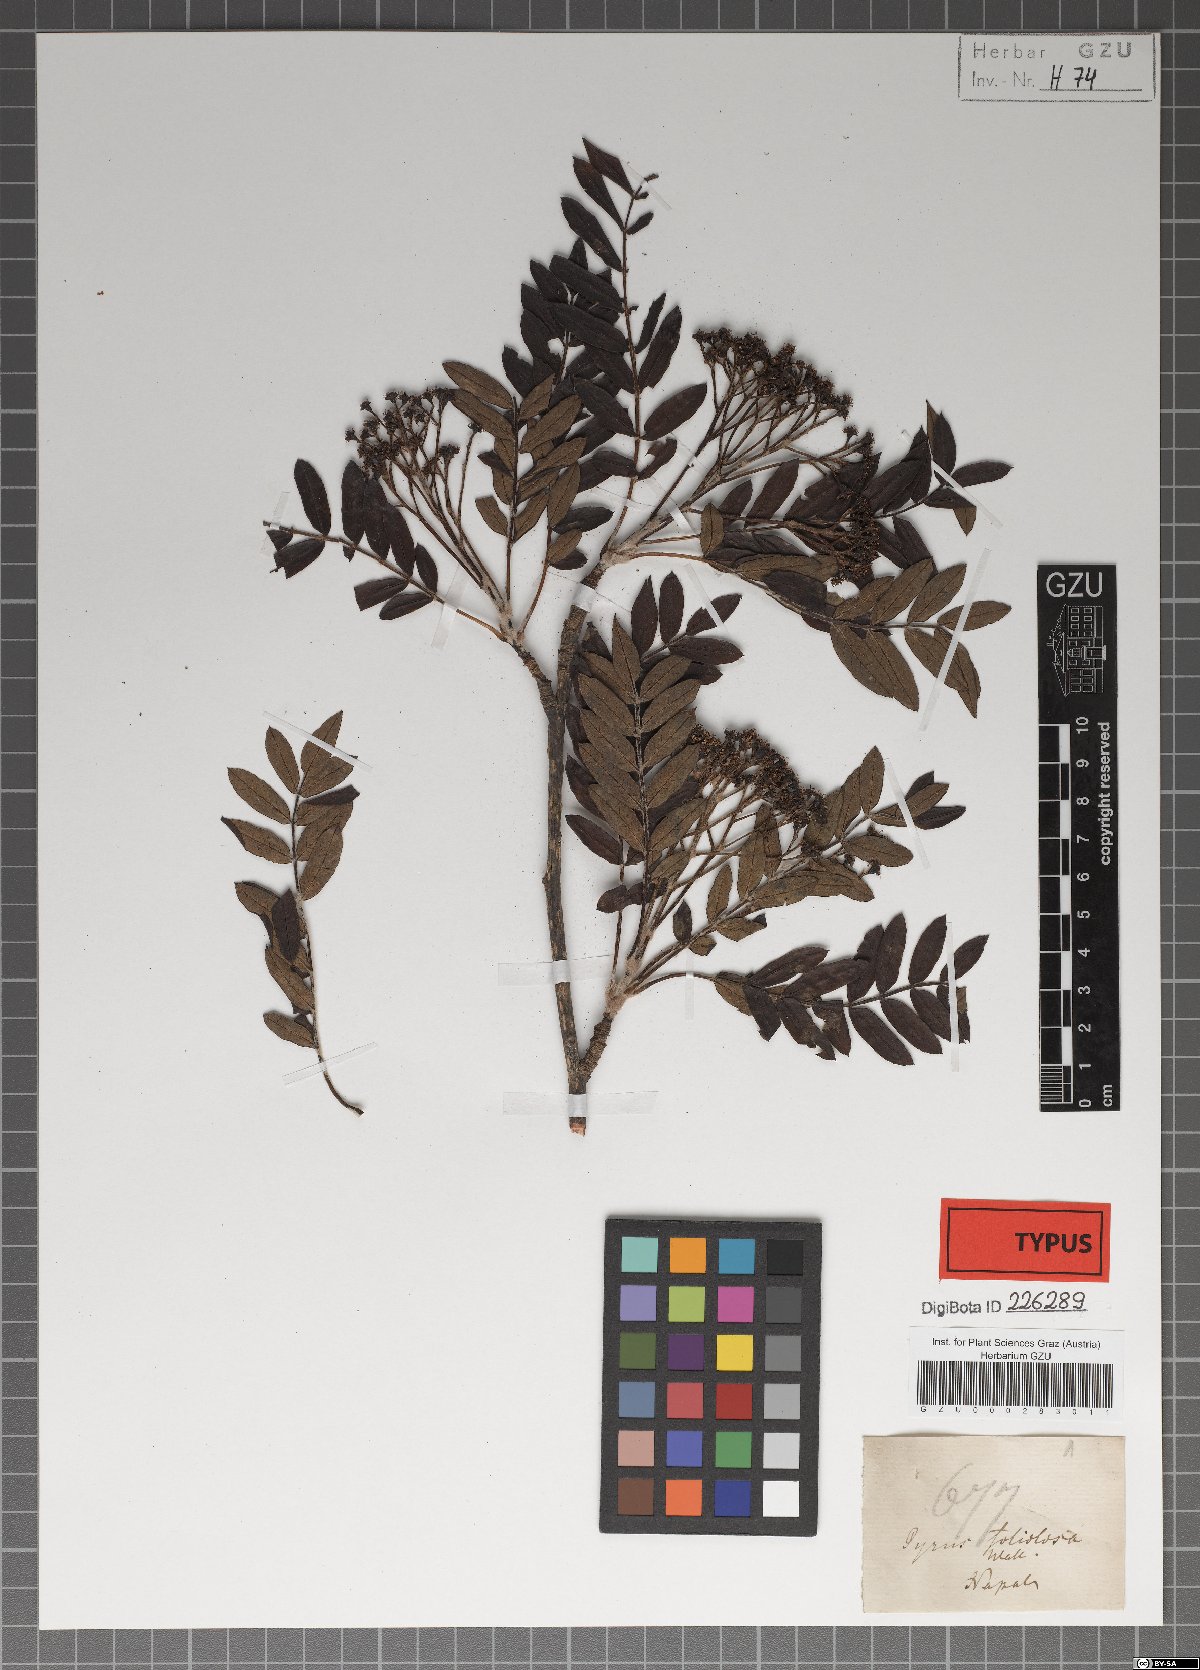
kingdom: Plantae
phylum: Tracheophyta
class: Magnoliopsida
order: Rosales
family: Rosaceae
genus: Sorbus
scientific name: Sorbus foliolosa
